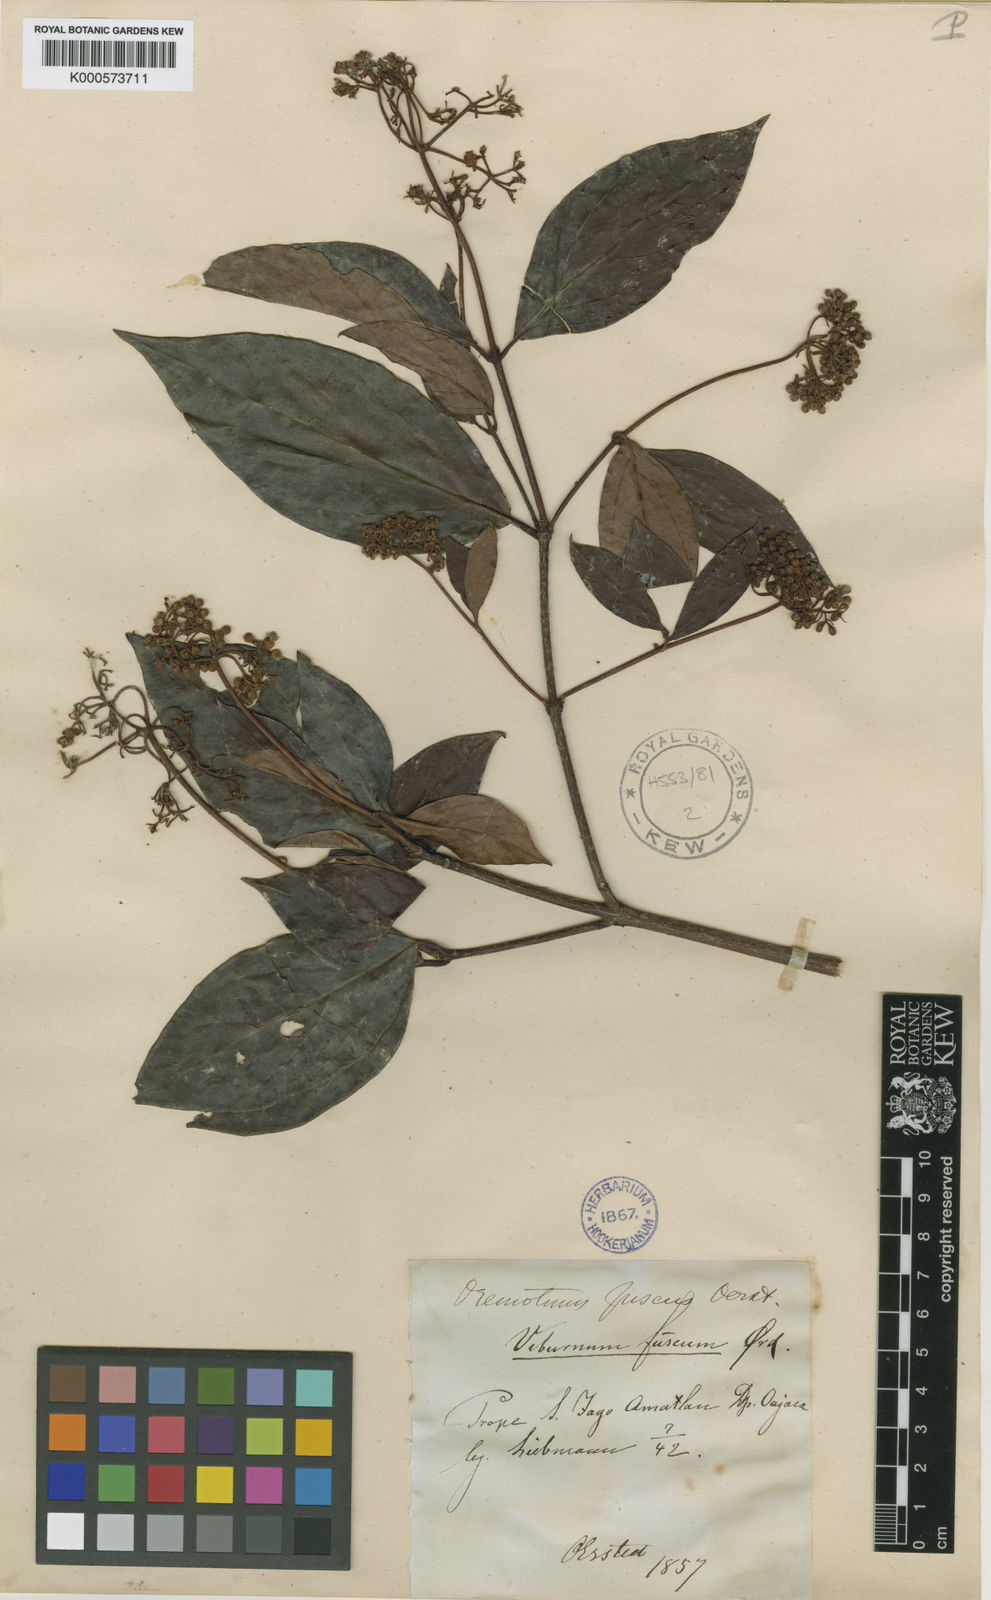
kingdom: Plantae
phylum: Tracheophyta
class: Magnoliopsida
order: Dipsacales
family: Viburnaceae
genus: Viburnum
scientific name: Viburnum acutifolium
